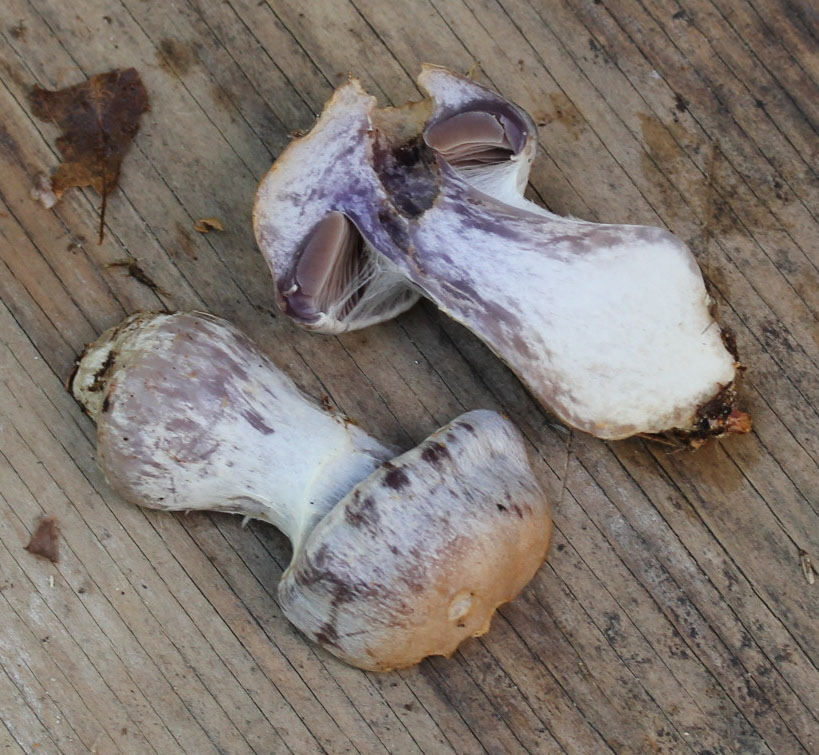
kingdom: Fungi
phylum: Basidiomycota
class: Agaricomycetes
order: Agaricales
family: Cortinariaceae
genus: Cortinarius
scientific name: Cortinarius quarciticus
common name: kvarts-slørhat
